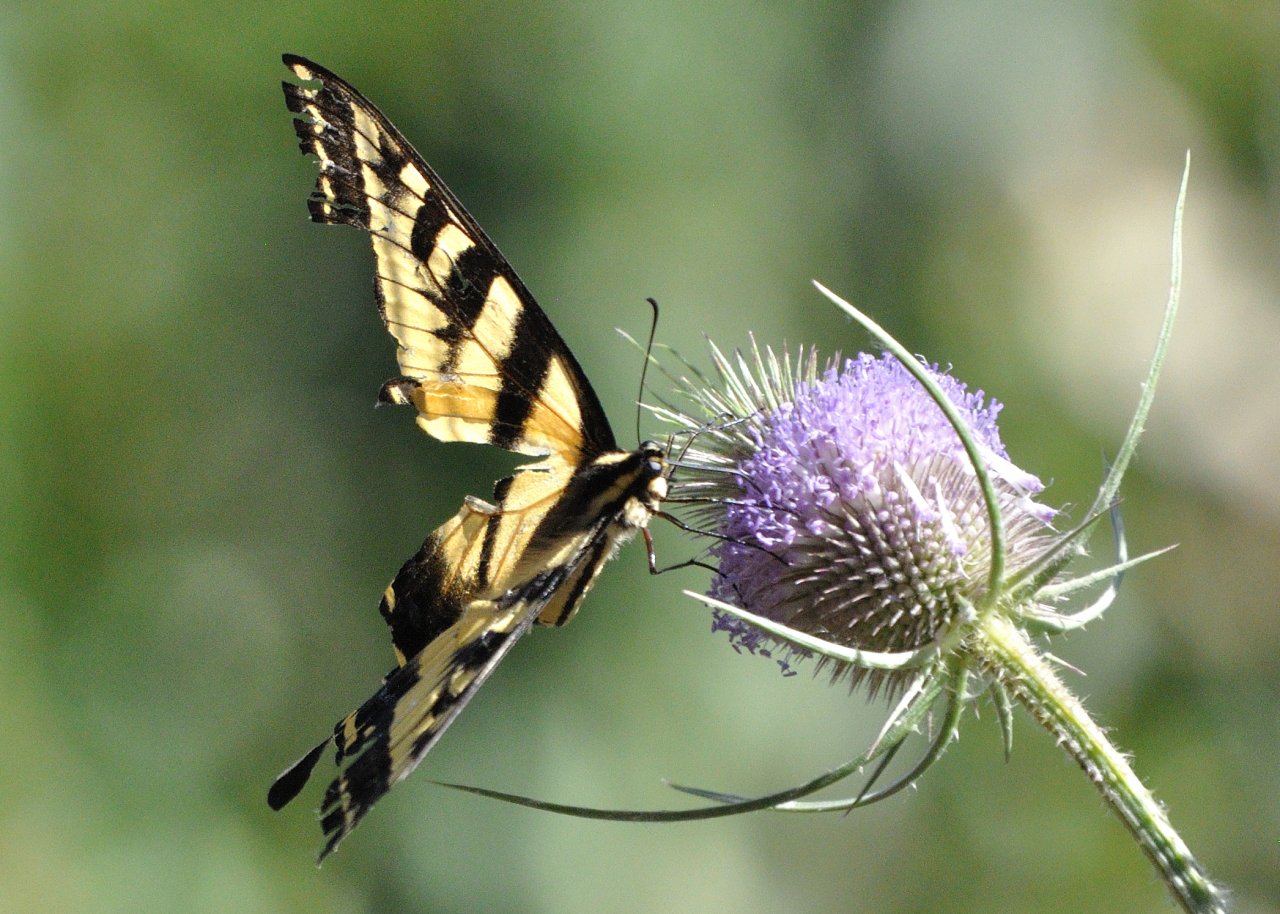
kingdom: Animalia
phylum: Arthropoda
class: Insecta
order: Lepidoptera
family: Papilionidae
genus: Pterourus
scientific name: Pterourus rutulus
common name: Western Tiger Swallowtail
